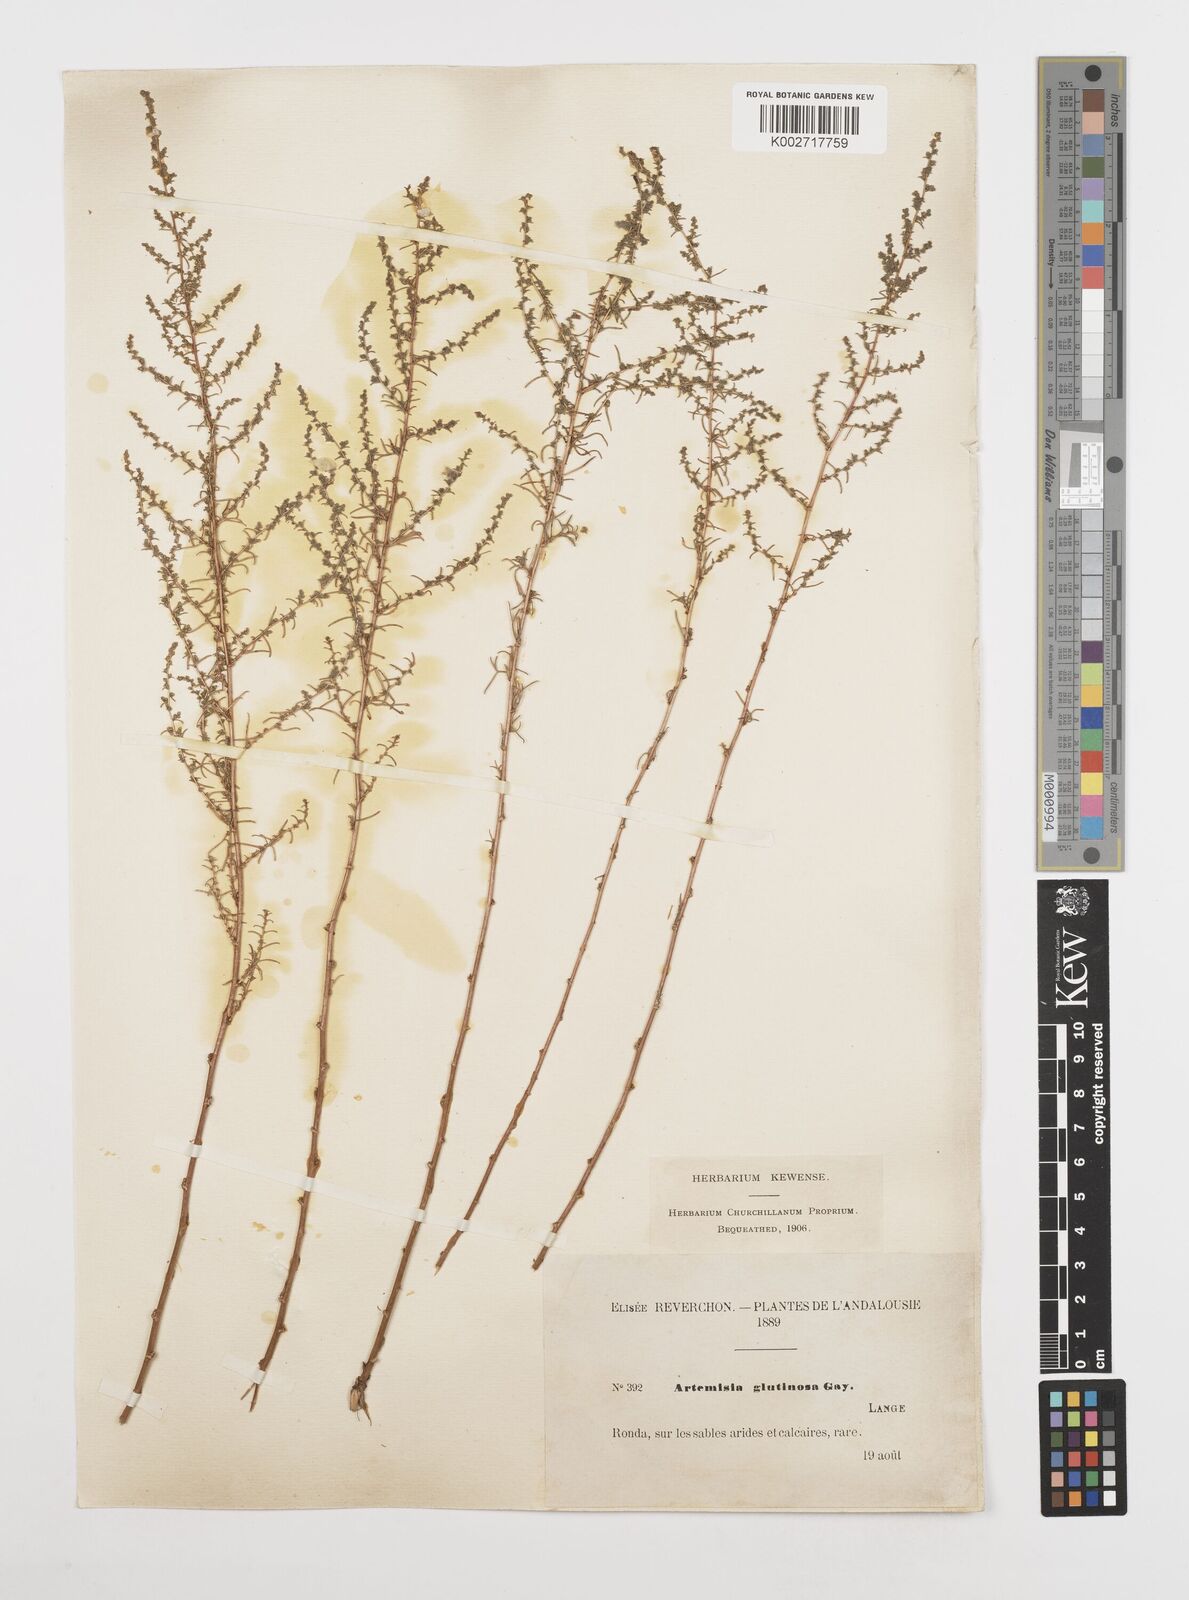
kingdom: Plantae
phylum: Tracheophyta
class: Magnoliopsida
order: Asterales
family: Asteraceae
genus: Artemisia
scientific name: Artemisia campestris
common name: Field wormwood
